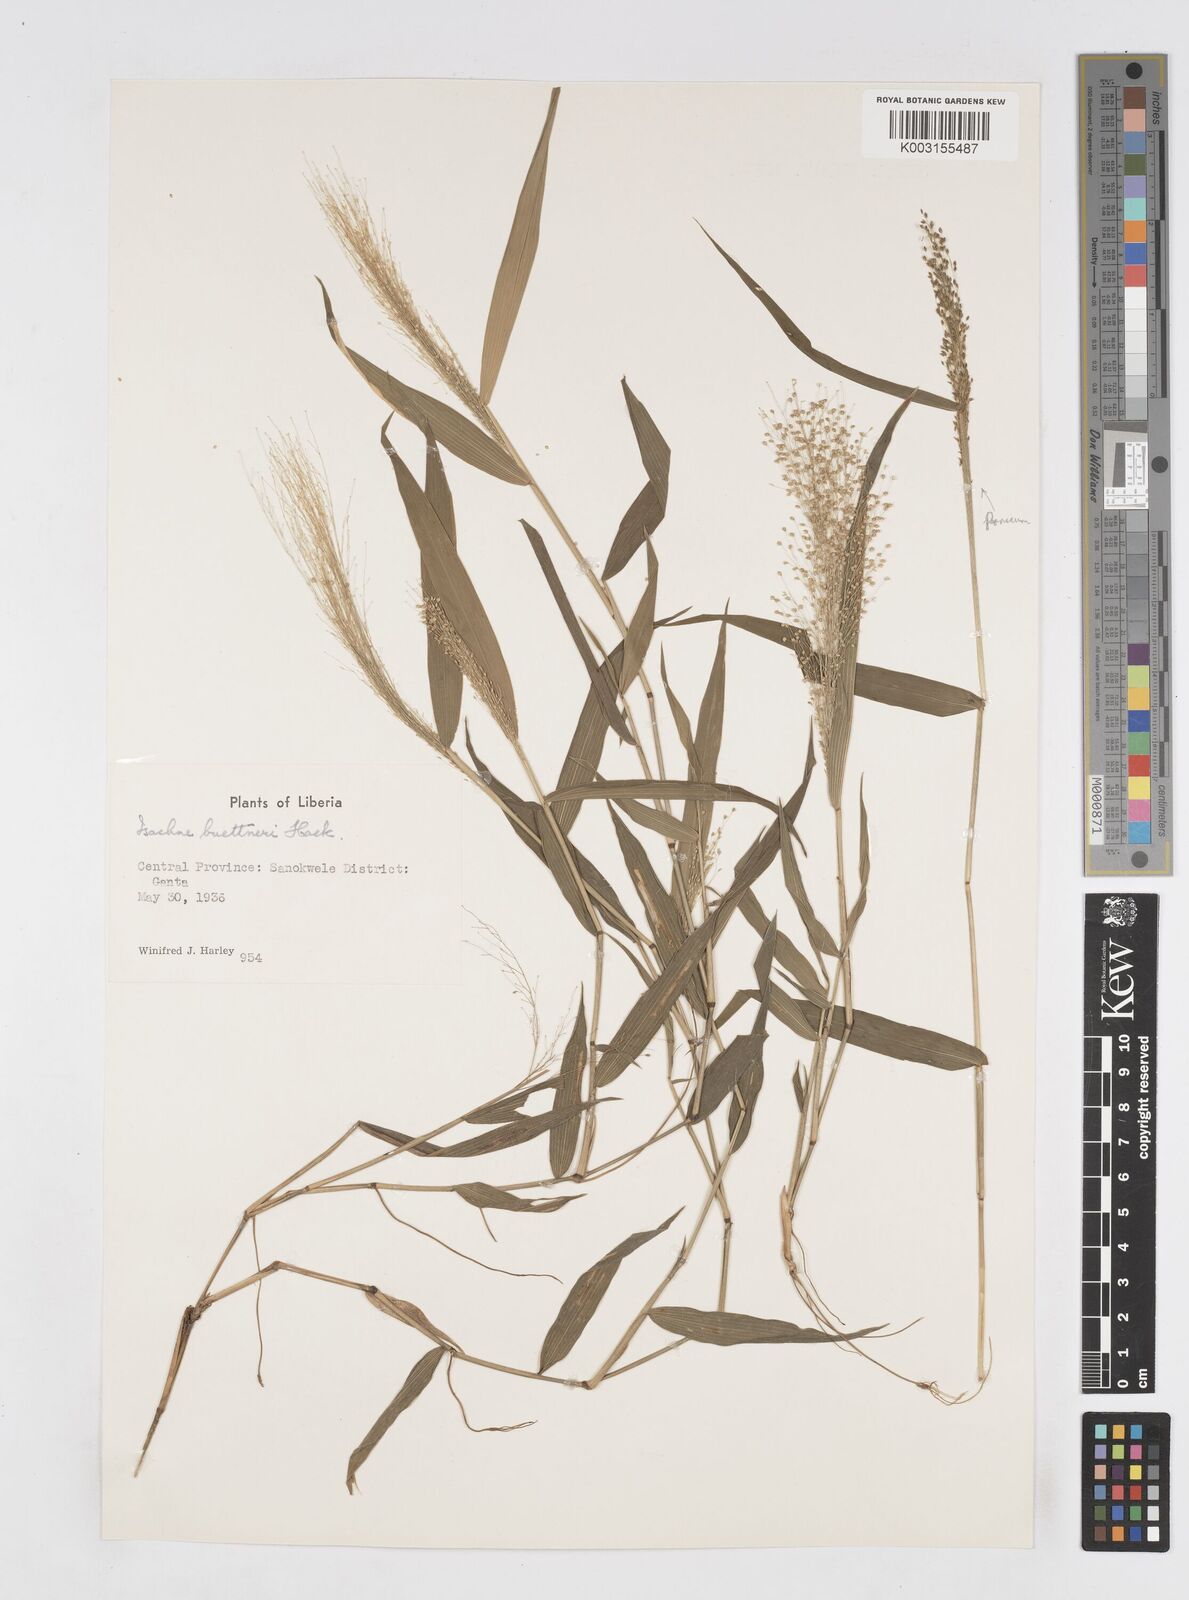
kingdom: Plantae
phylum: Tracheophyta
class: Liliopsida
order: Poales
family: Poaceae
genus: Isachne
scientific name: Isachne albens
